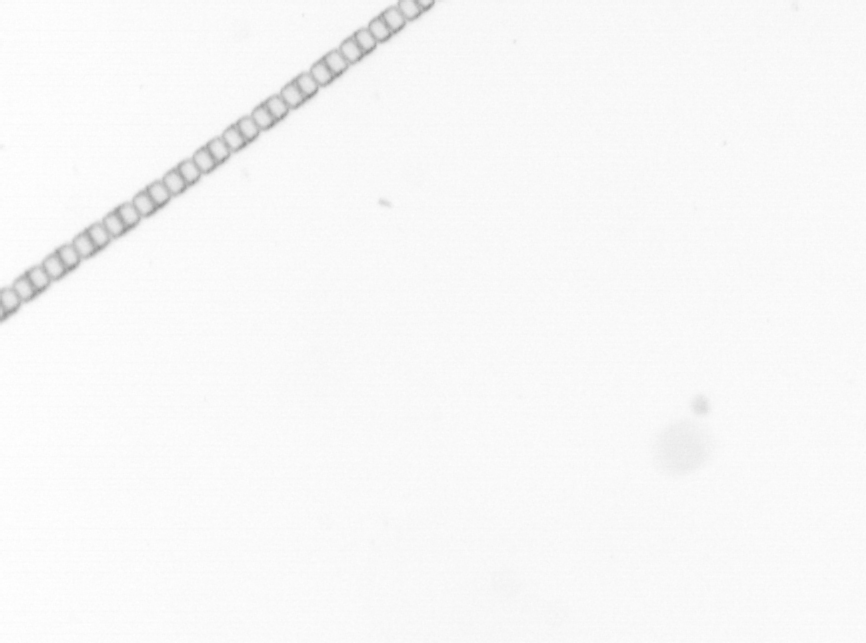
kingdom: Chromista
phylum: Ochrophyta
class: Bacillariophyceae
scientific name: Bacillariophyceae
